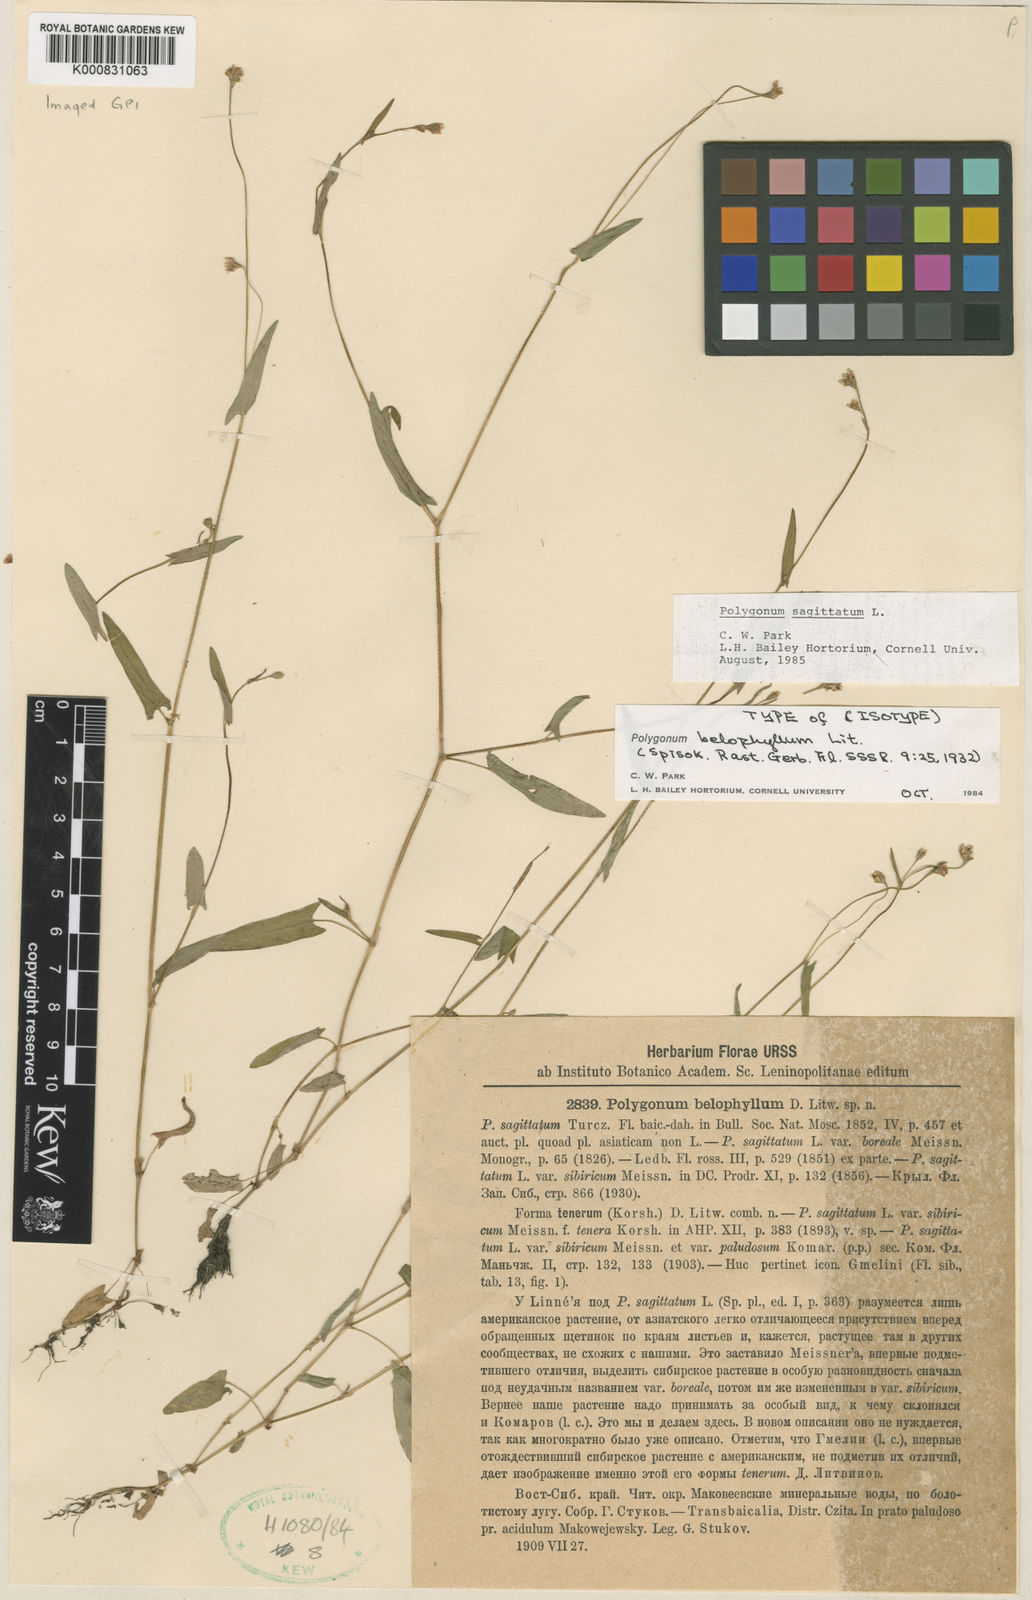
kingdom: Plantae
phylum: Tracheophyta
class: Magnoliopsida
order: Caryophyllales
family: Polygonaceae
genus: Persicaria
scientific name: Persicaria sagittata
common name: American tearthumb
